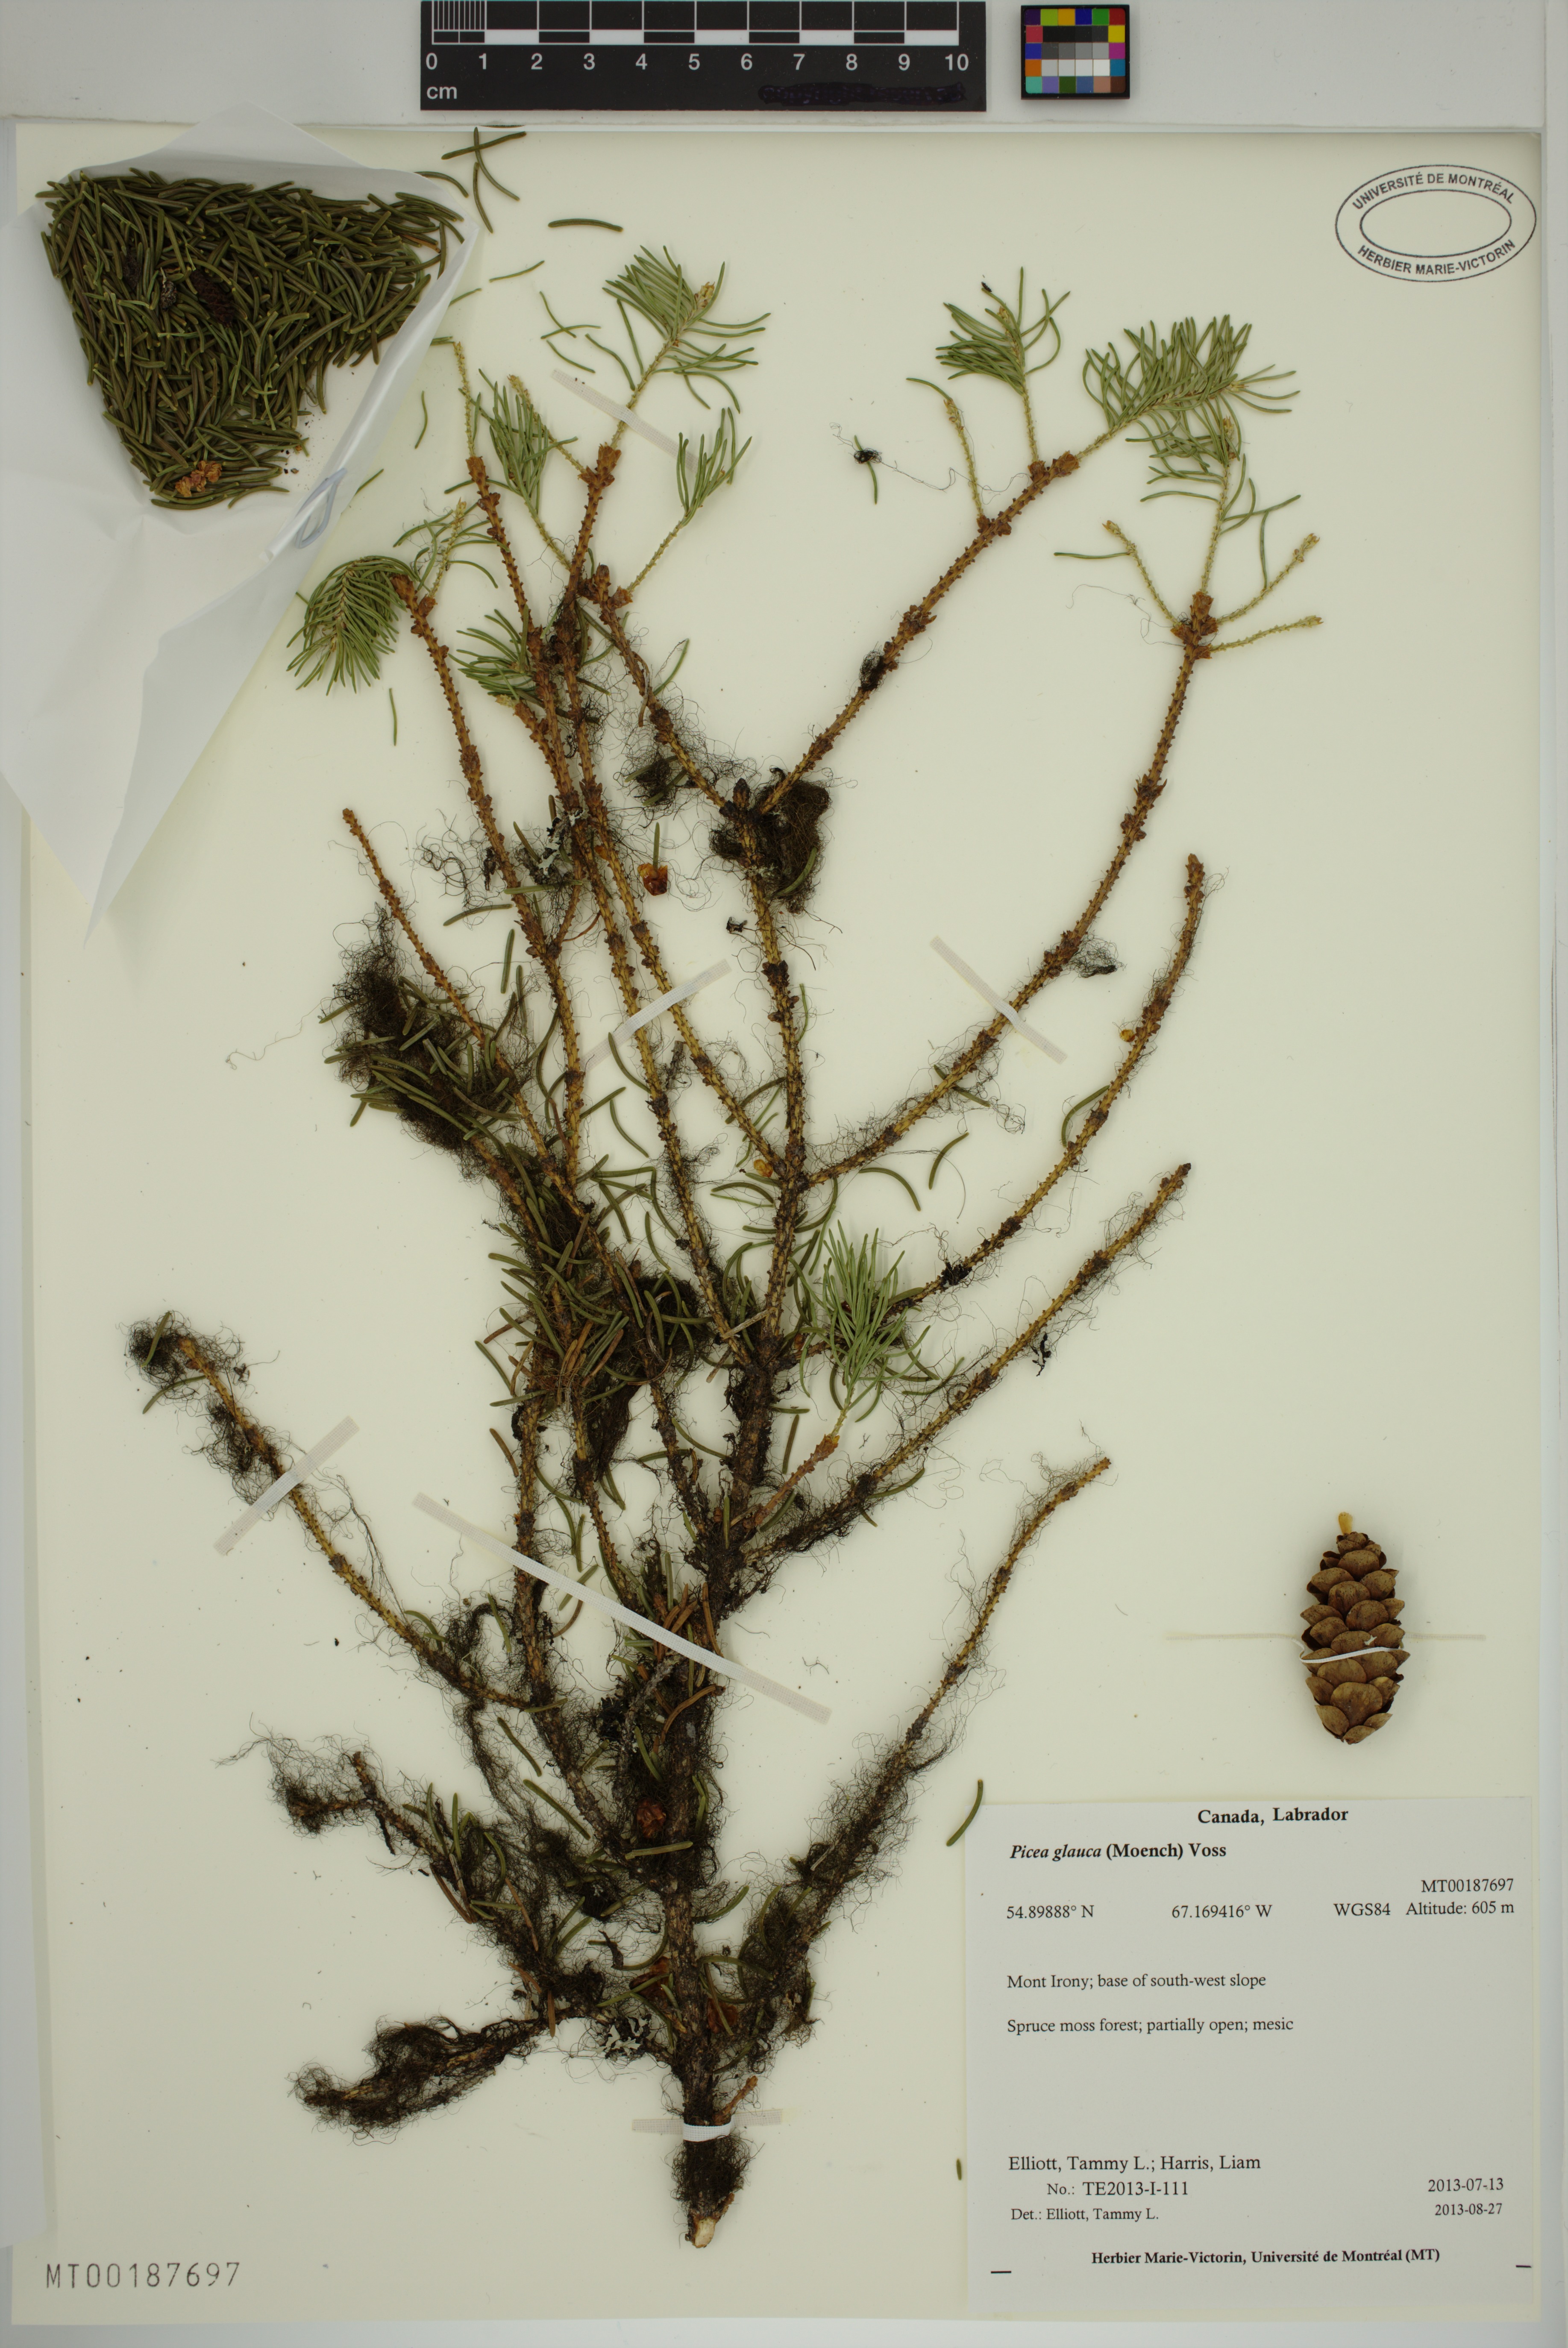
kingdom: Plantae
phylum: Tracheophyta
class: Pinopsida
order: Pinales
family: Pinaceae
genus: Picea
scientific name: Picea glauca
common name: White spruce
